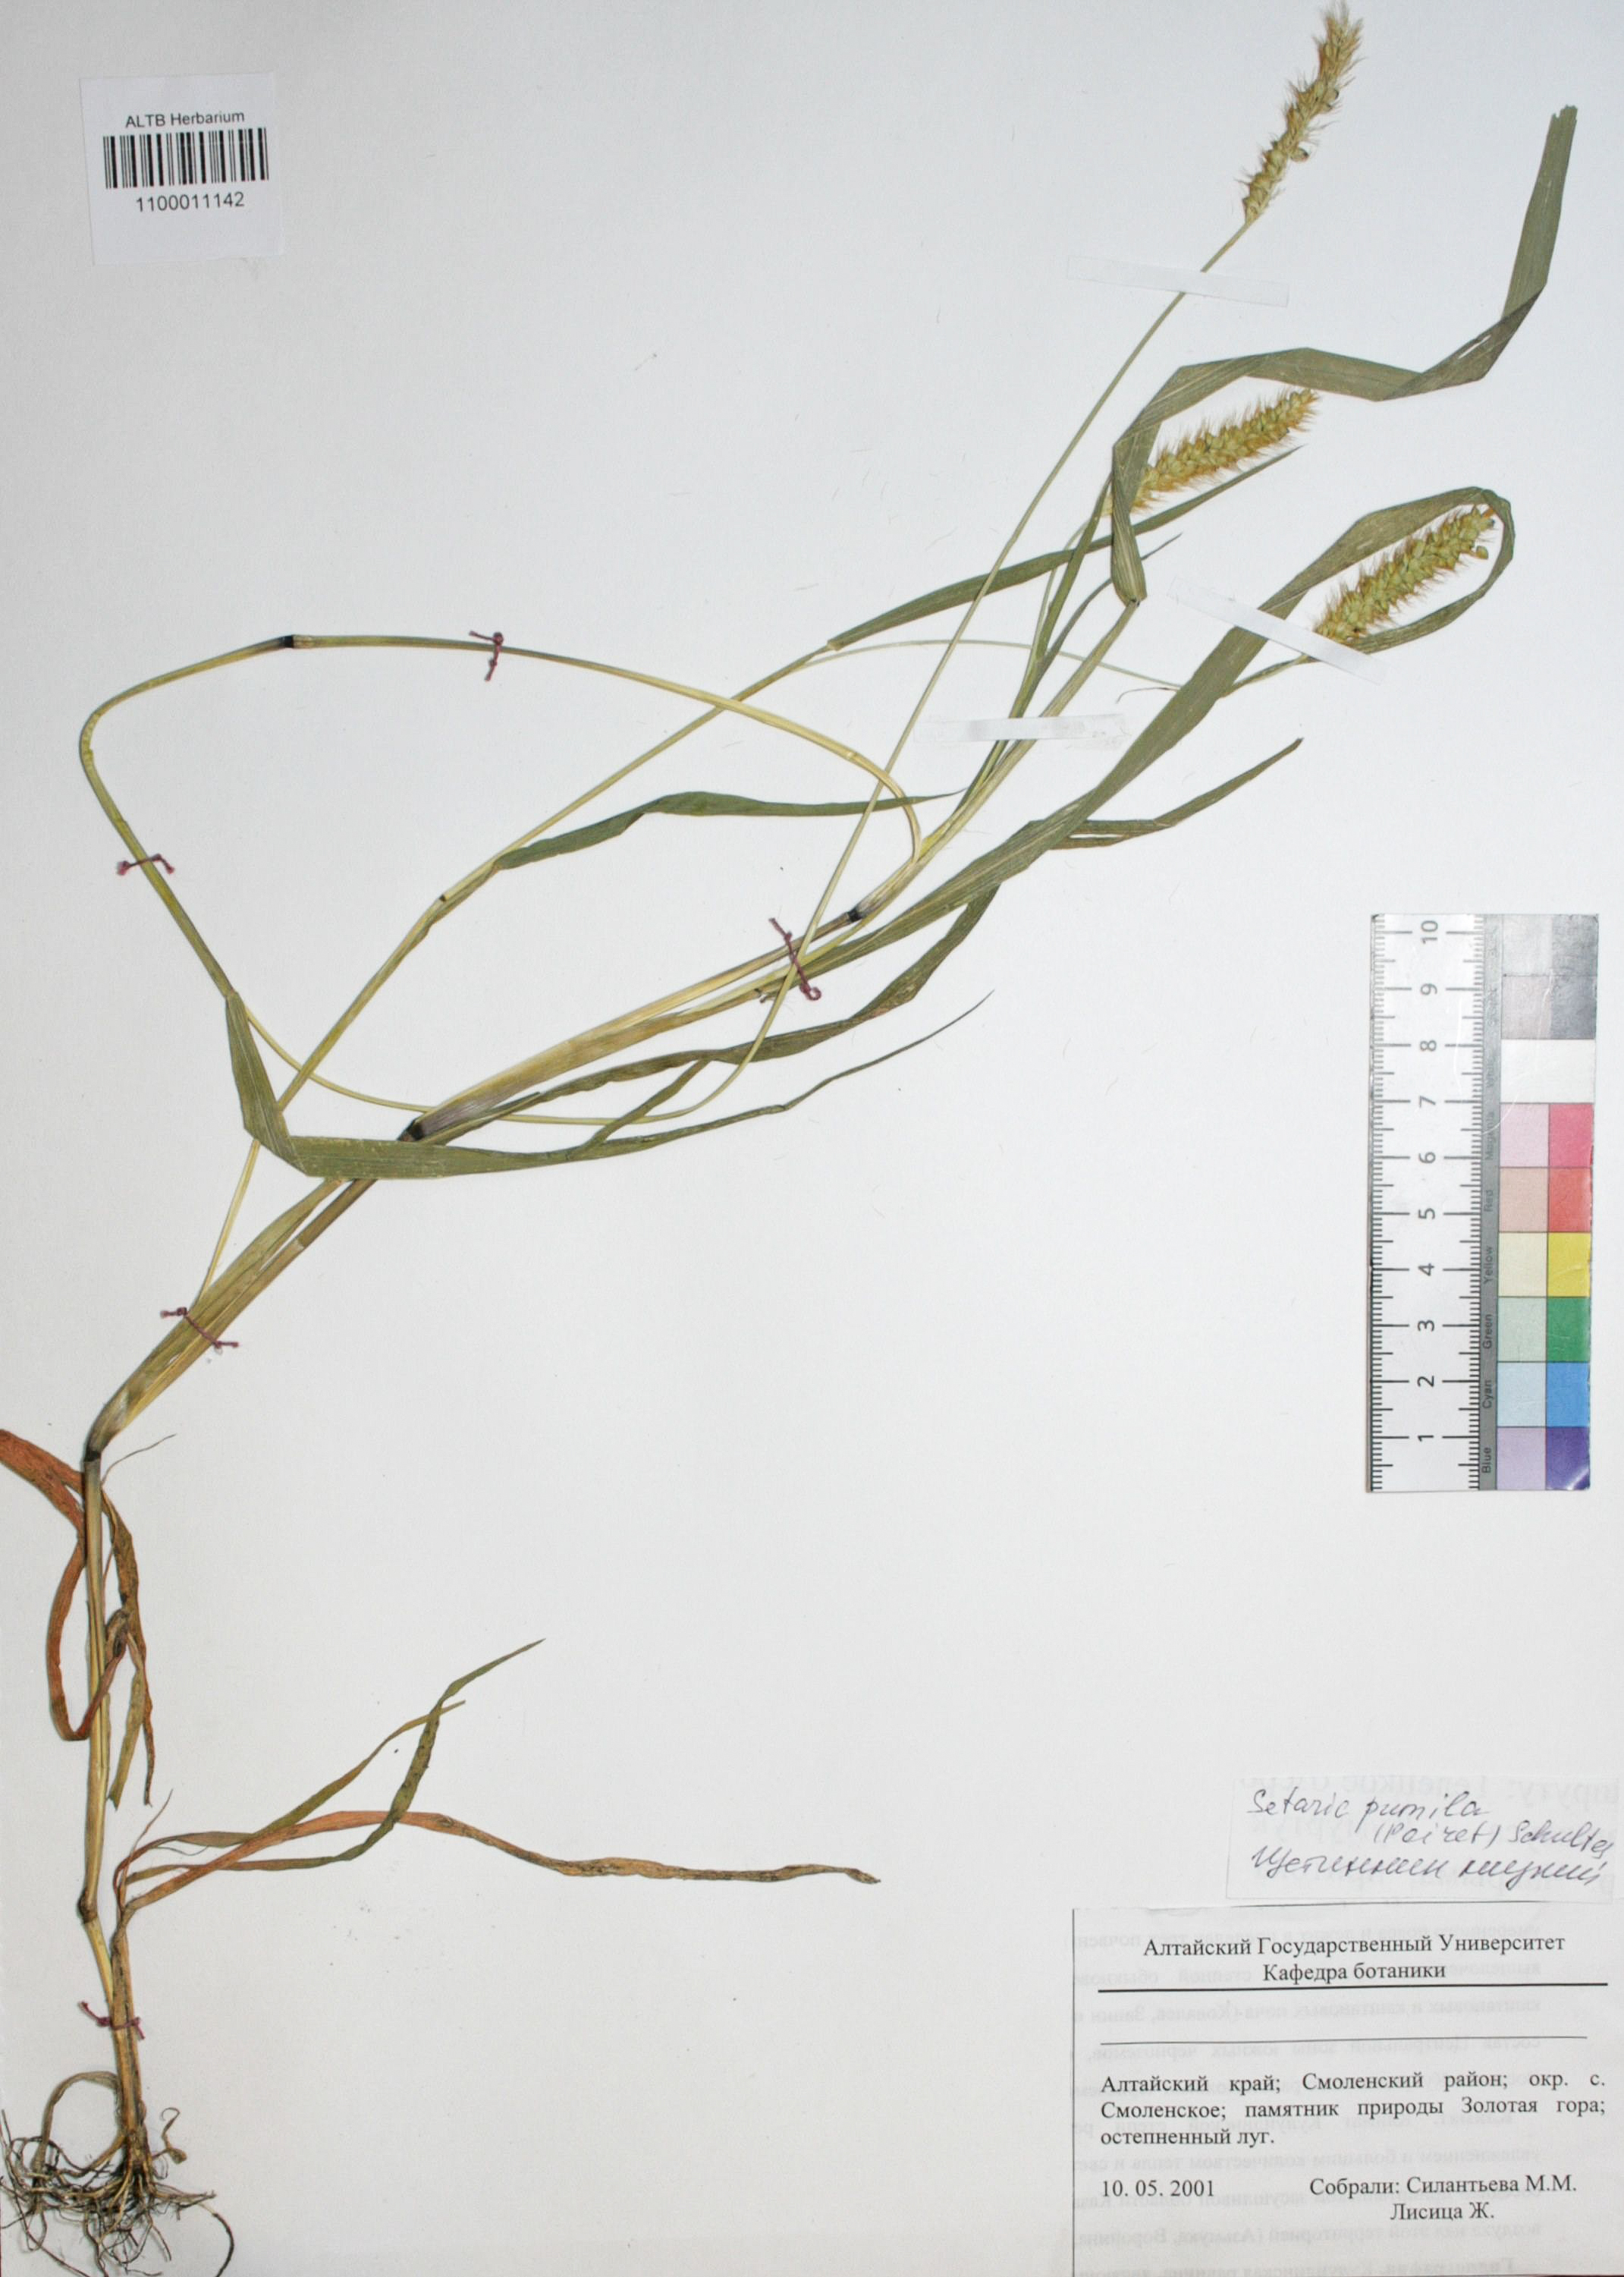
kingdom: Plantae
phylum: Tracheophyta
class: Liliopsida
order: Poales
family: Poaceae
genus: Setaria
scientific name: Setaria pumila
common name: Yellow bristle-grass
